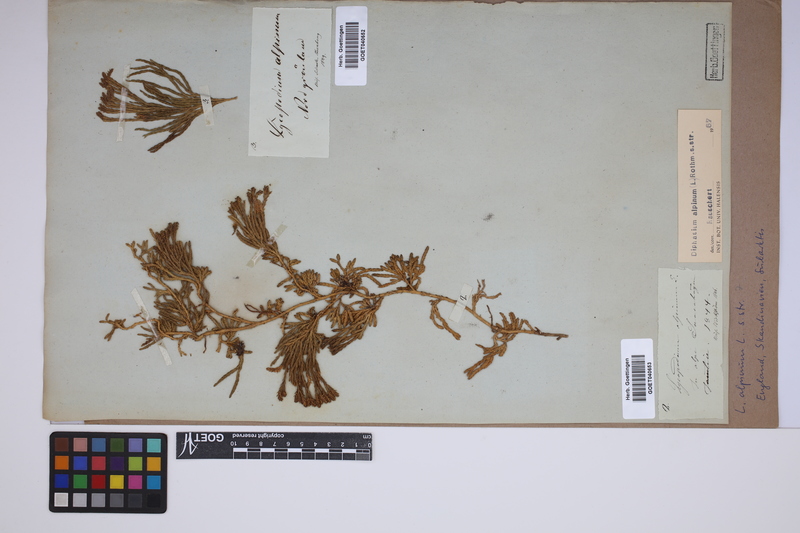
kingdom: Plantae
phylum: Tracheophyta
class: Lycopodiopsida
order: Lycopodiales
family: Lycopodiaceae
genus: Diphasiastrum
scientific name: Diphasiastrum alpinum
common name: Alpine clubmoss
